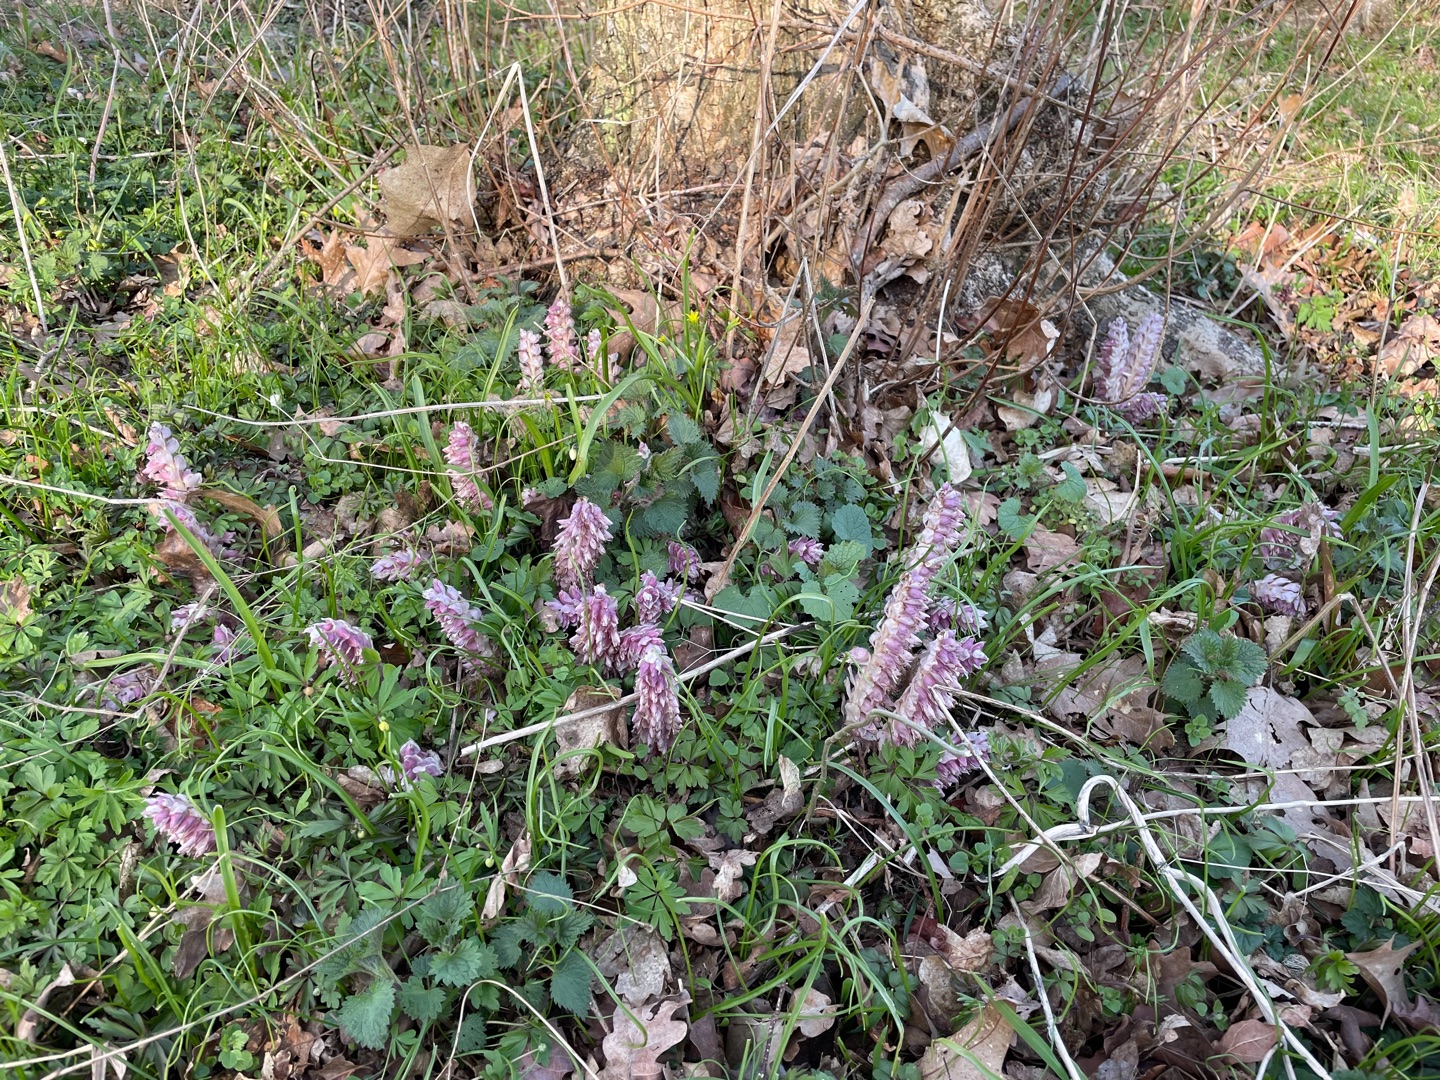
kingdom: Plantae
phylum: Tracheophyta
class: Magnoliopsida
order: Lamiales
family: Orobanchaceae
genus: Lathraea
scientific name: Lathraea squamaria
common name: Skælrod
